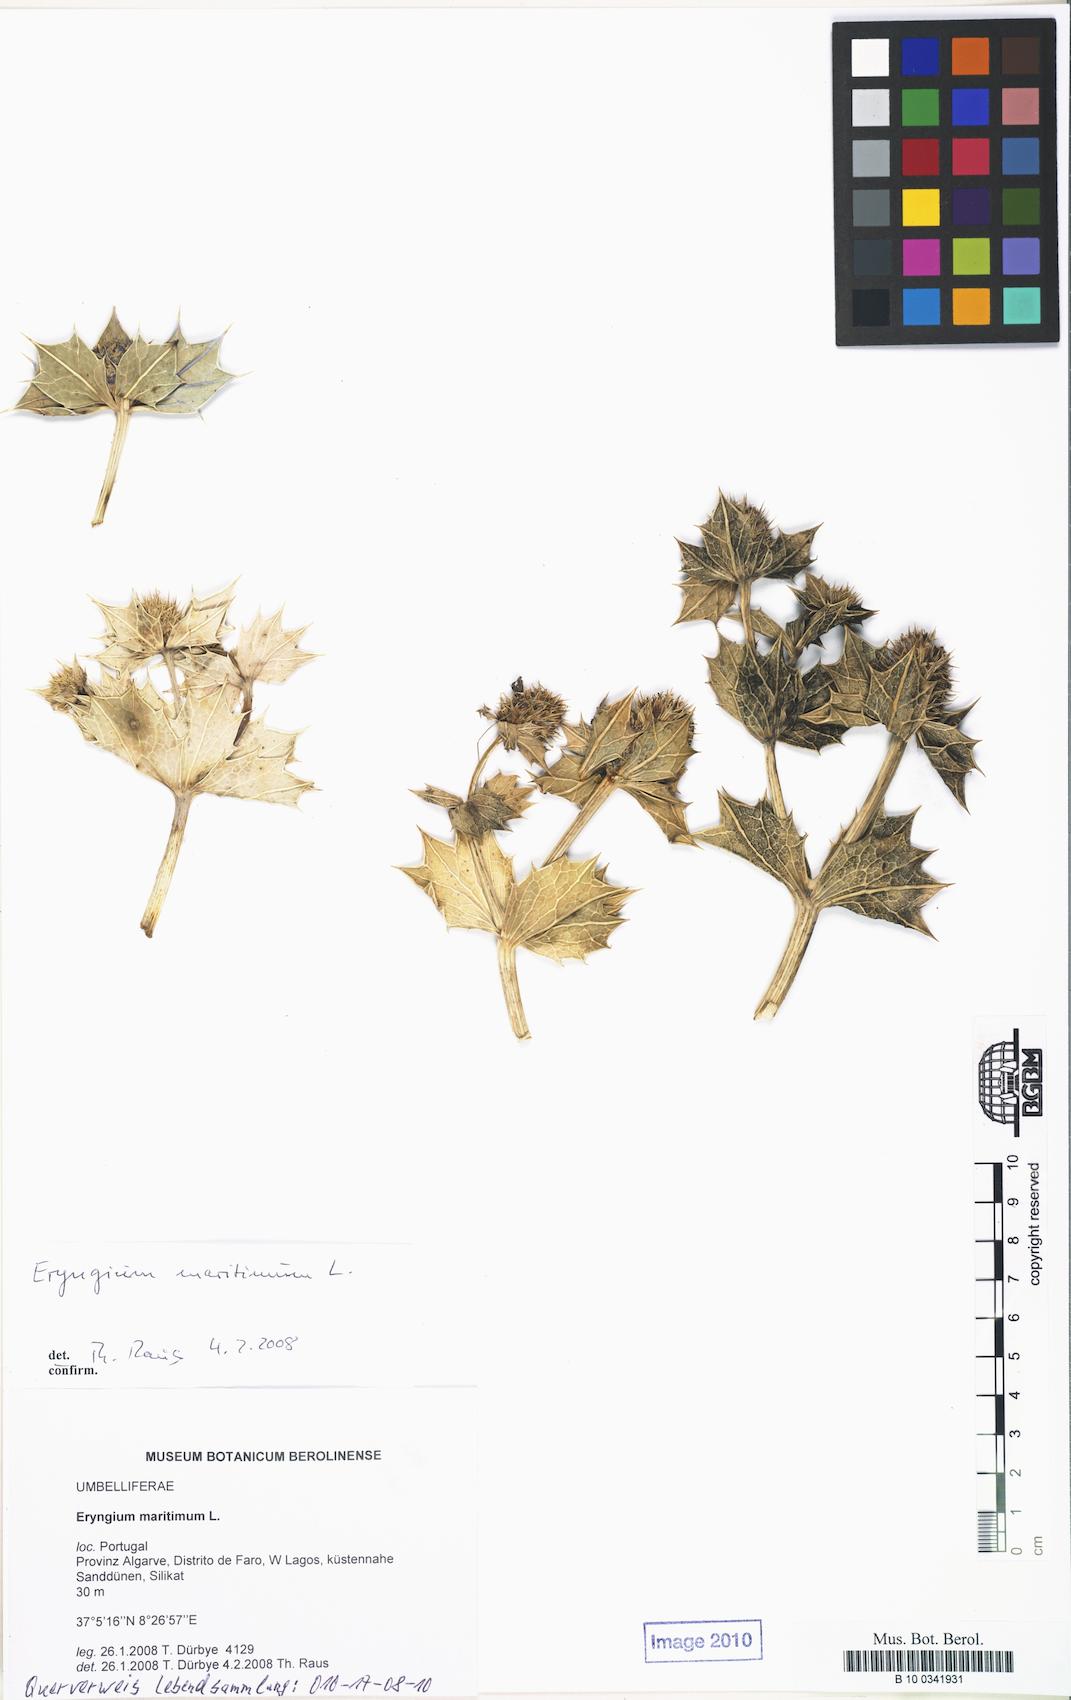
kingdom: Plantae
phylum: Tracheophyta
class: Magnoliopsida
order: Apiales
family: Apiaceae
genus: Eryngium
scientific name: Eryngium maritimum
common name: Sea-holly
